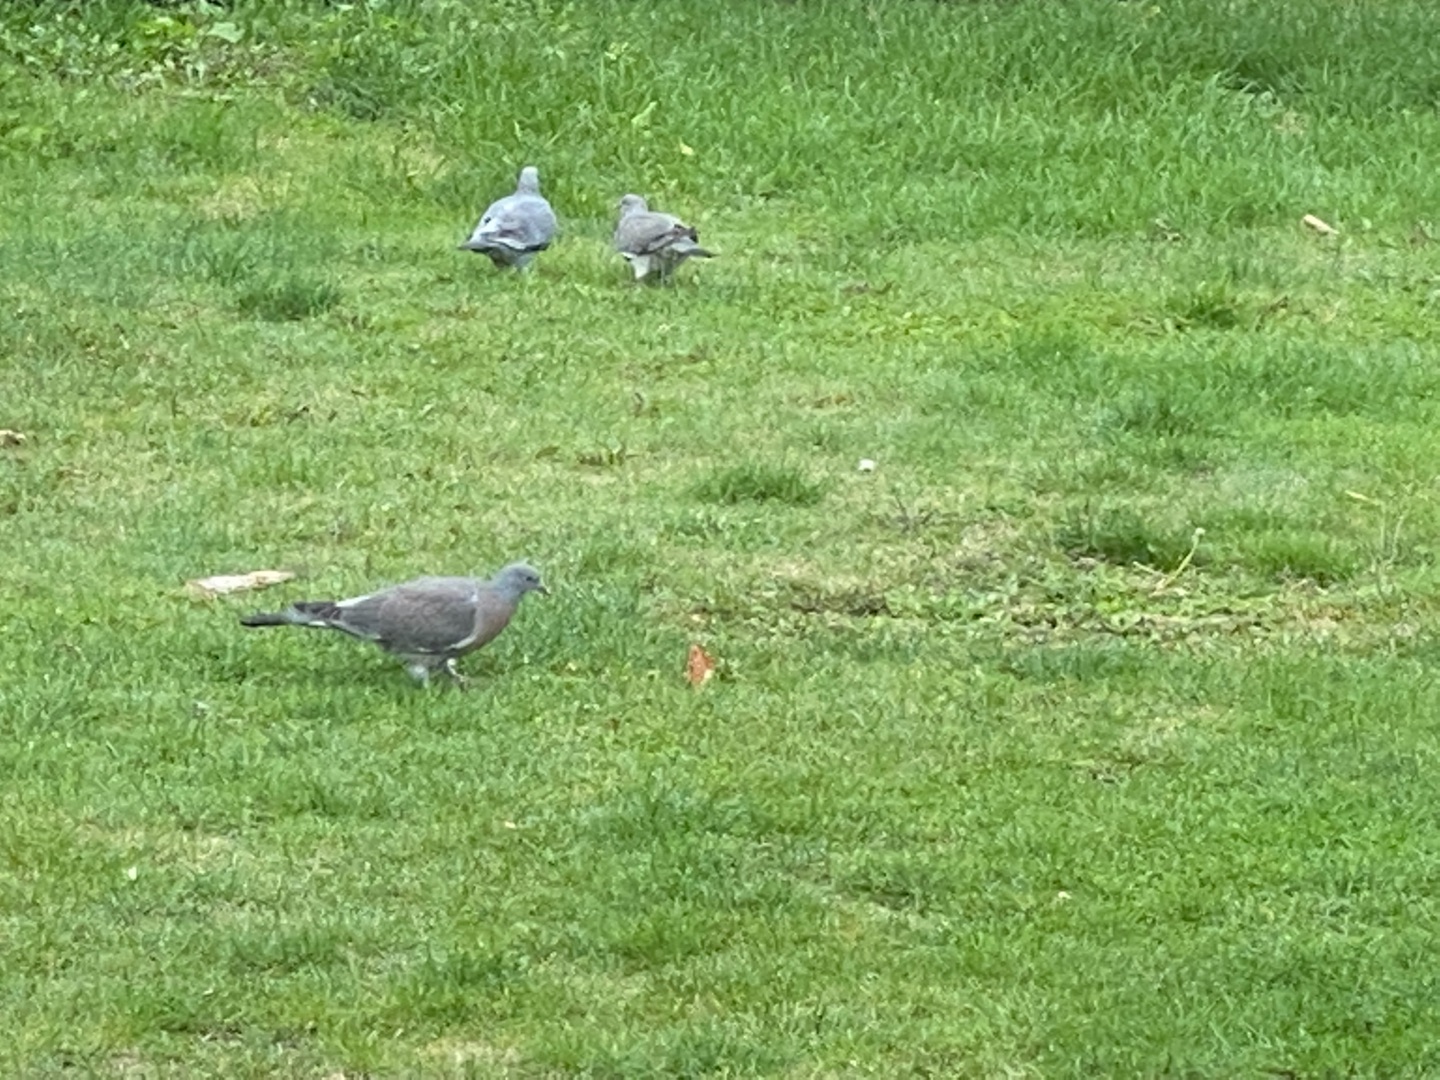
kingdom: Animalia
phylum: Chordata
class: Aves
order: Columbiformes
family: Columbidae
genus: Columba
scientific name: Columba palumbus
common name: Ringdue
